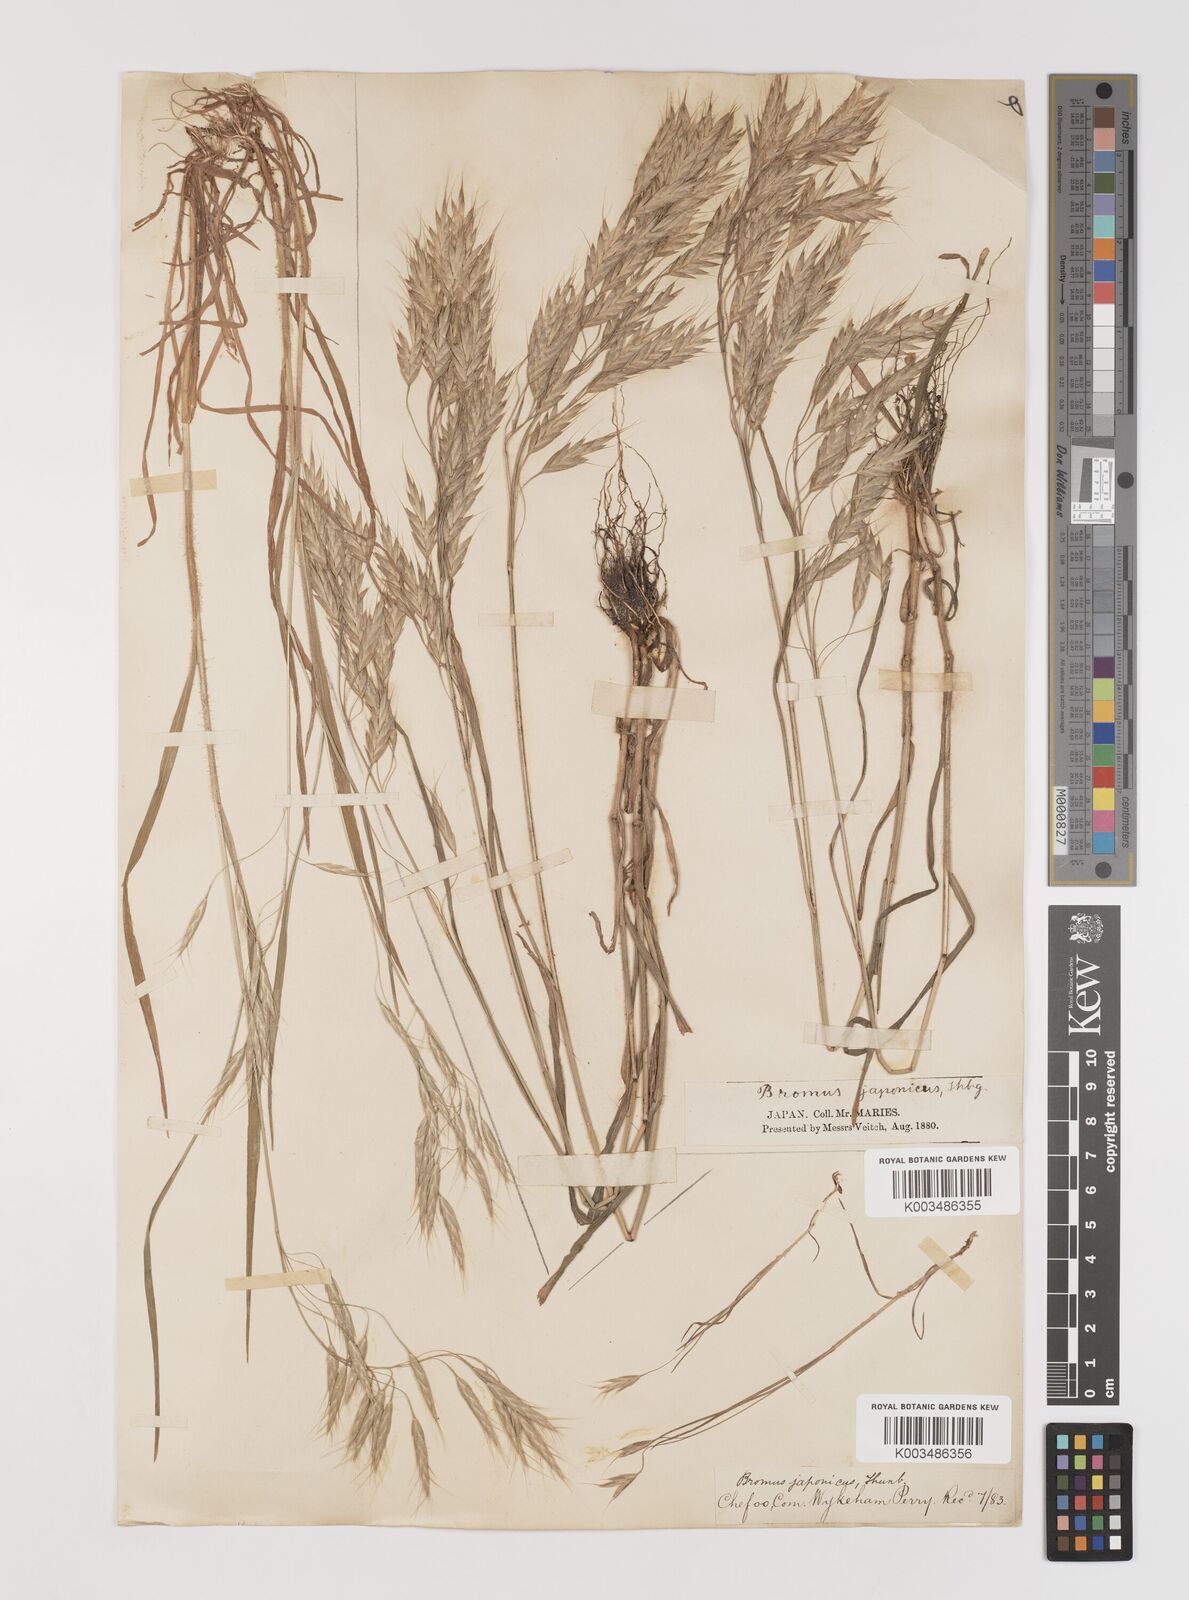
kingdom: Plantae
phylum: Tracheophyta
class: Liliopsida
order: Poales
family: Poaceae
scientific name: Poaceae
